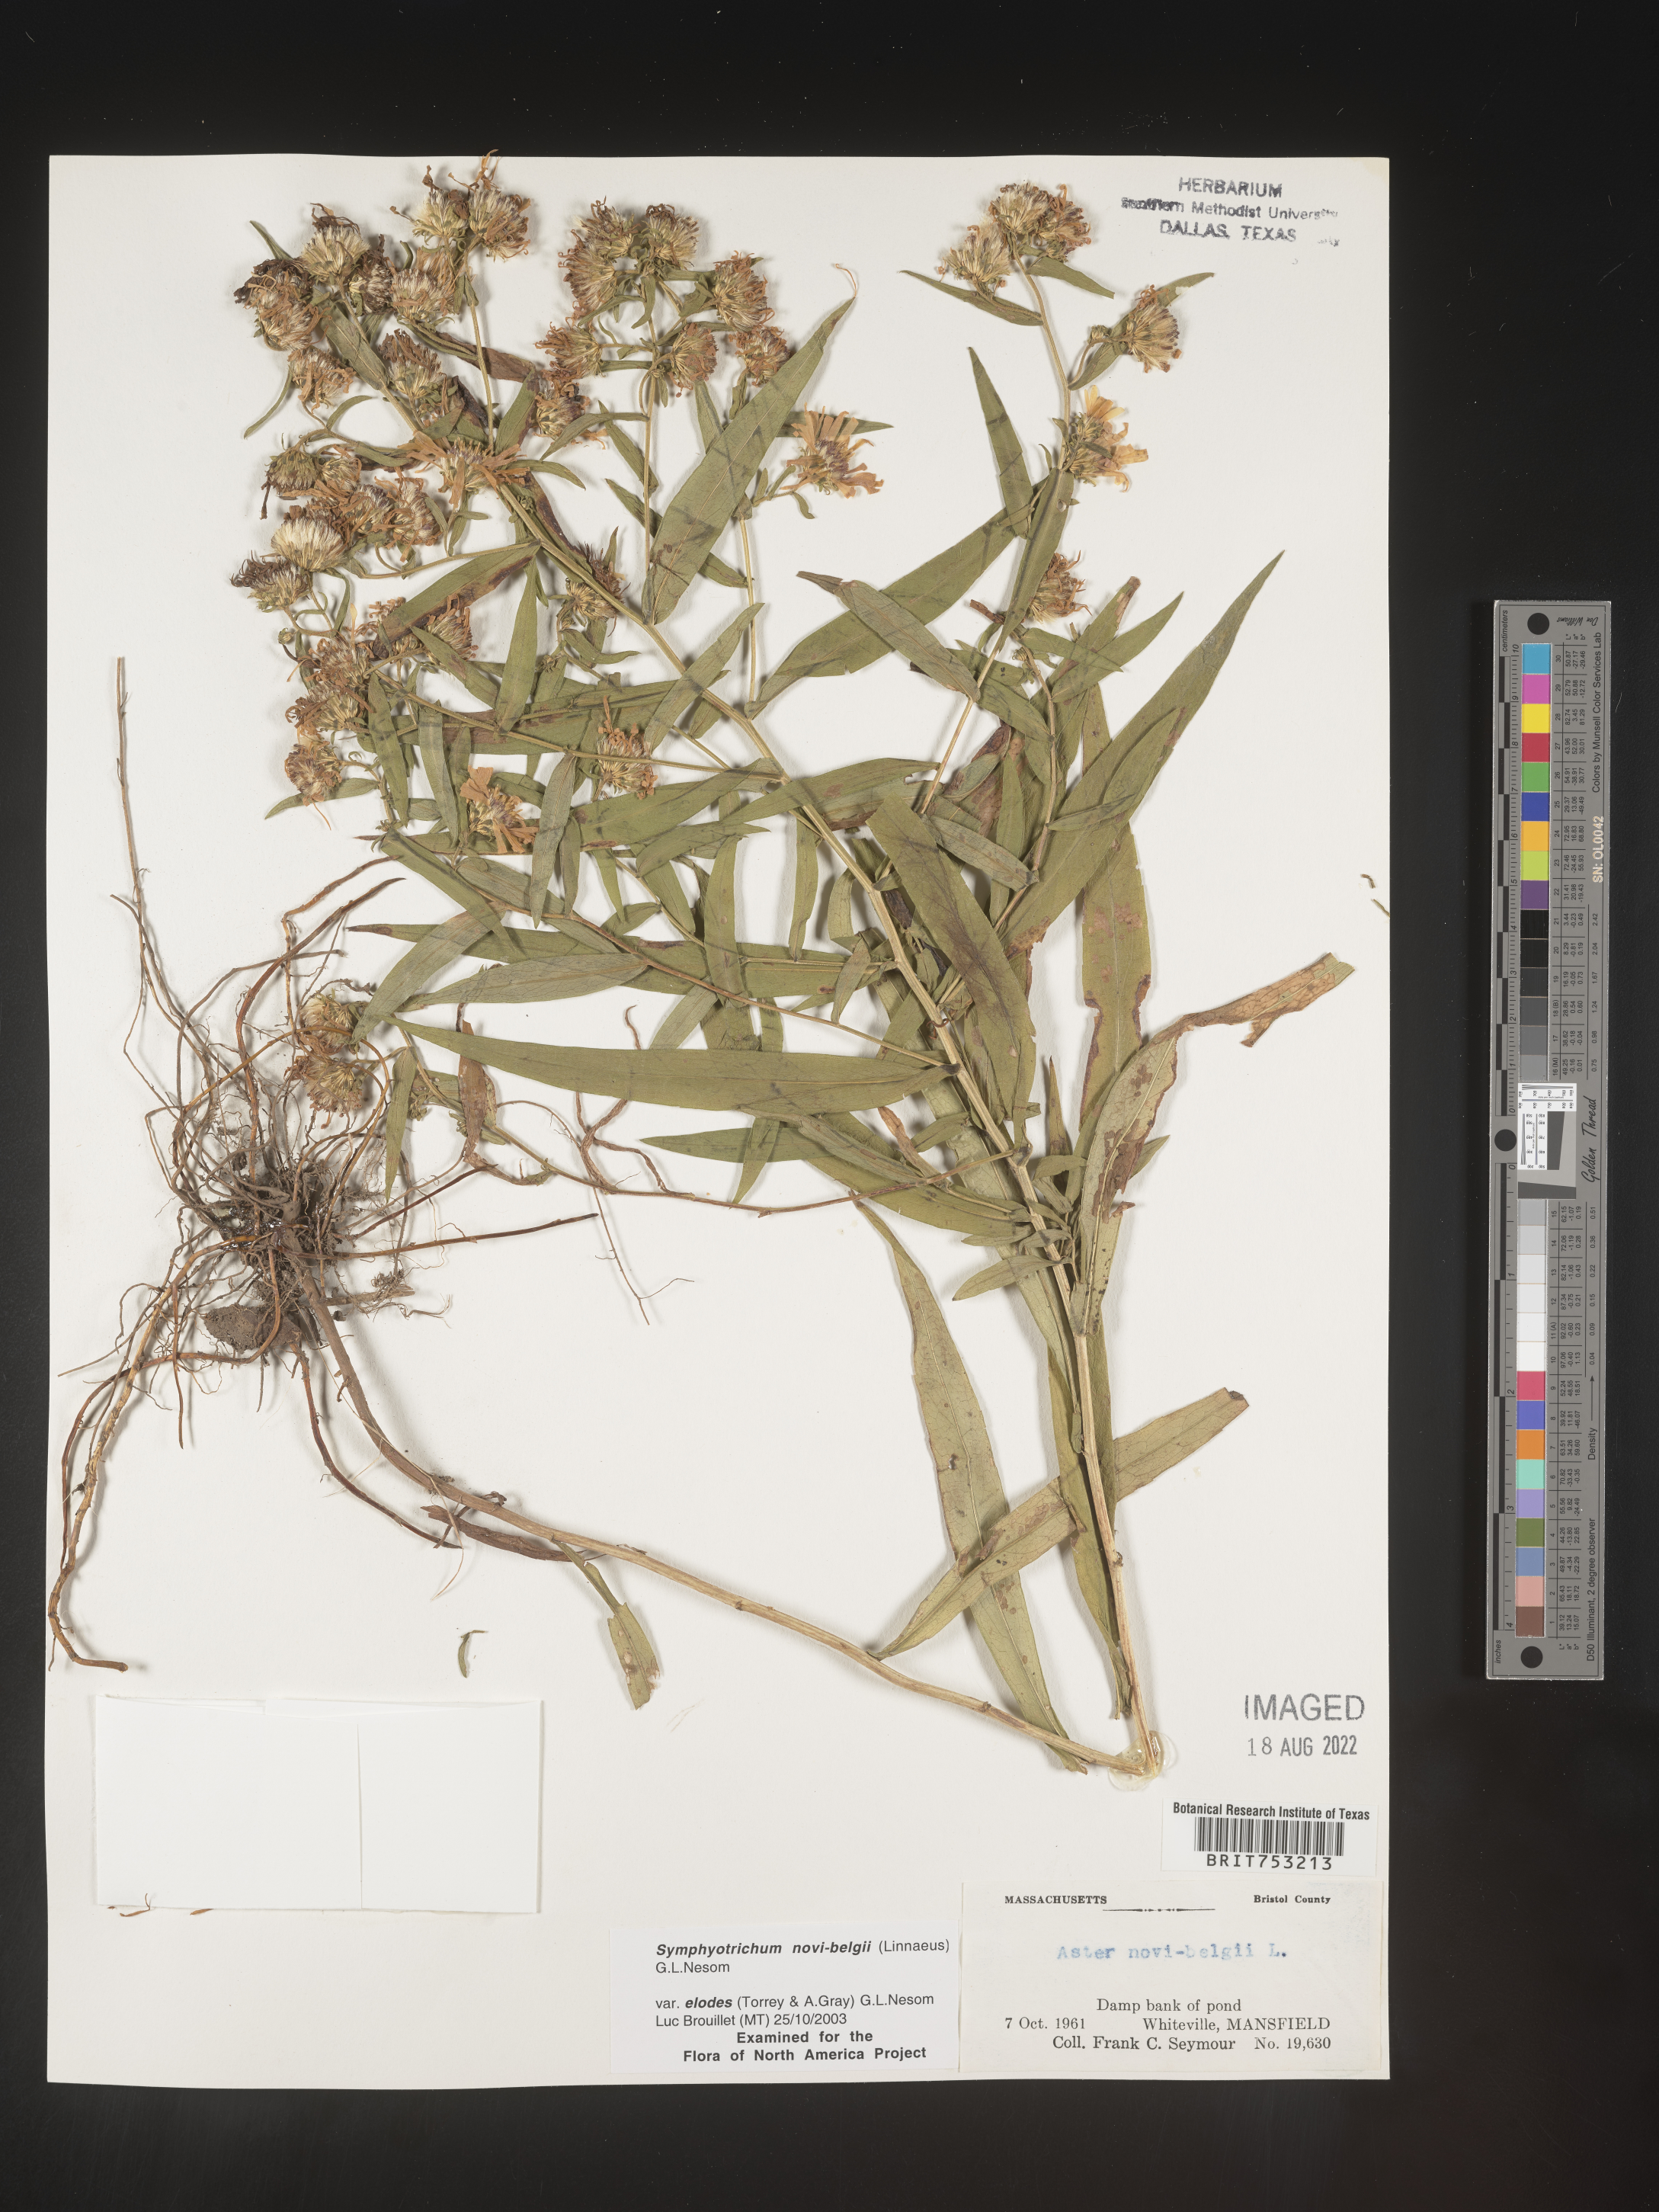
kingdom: Plantae
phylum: Tracheophyta
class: Magnoliopsida
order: Asterales
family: Asteraceae
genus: Symphyotrichum
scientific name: Symphyotrichum novi-belgii
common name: Michaelmas daisy
